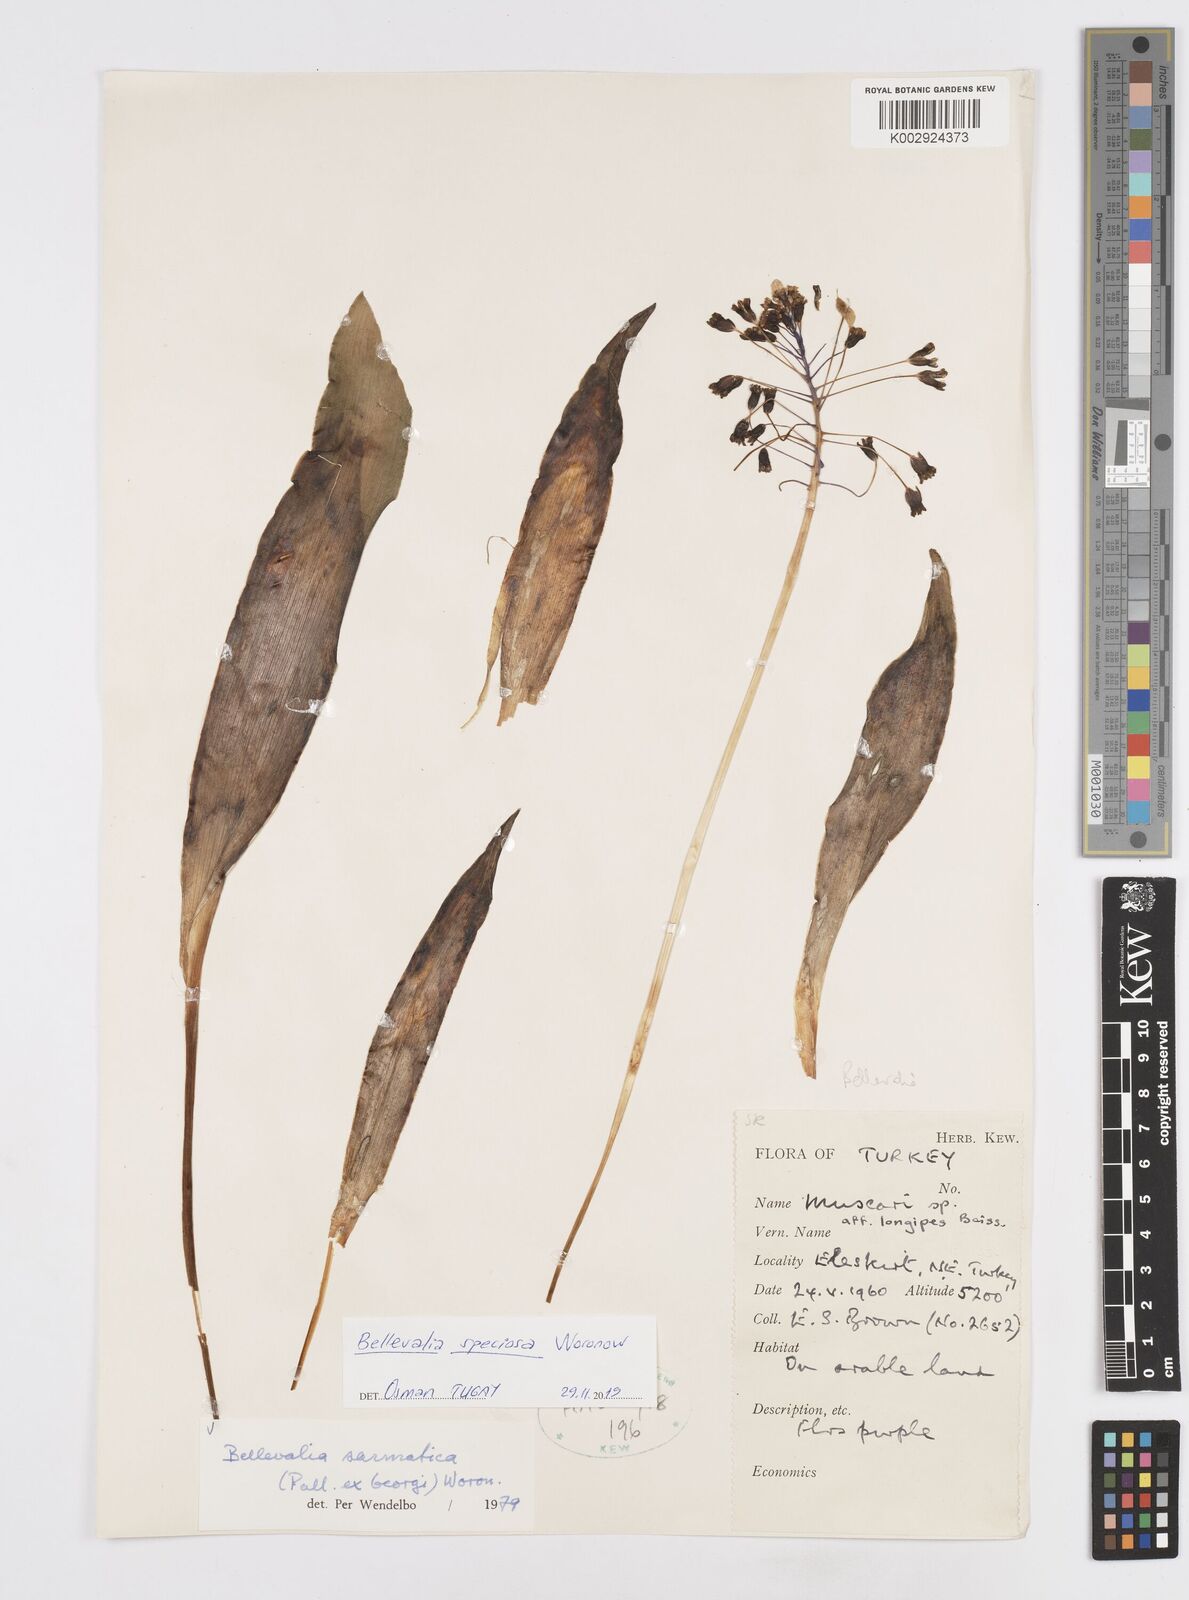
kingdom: Plantae
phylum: Tracheophyta
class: Liliopsida
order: Asparagales
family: Asparagaceae
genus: Bellevalia
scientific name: Bellevalia speciosa
